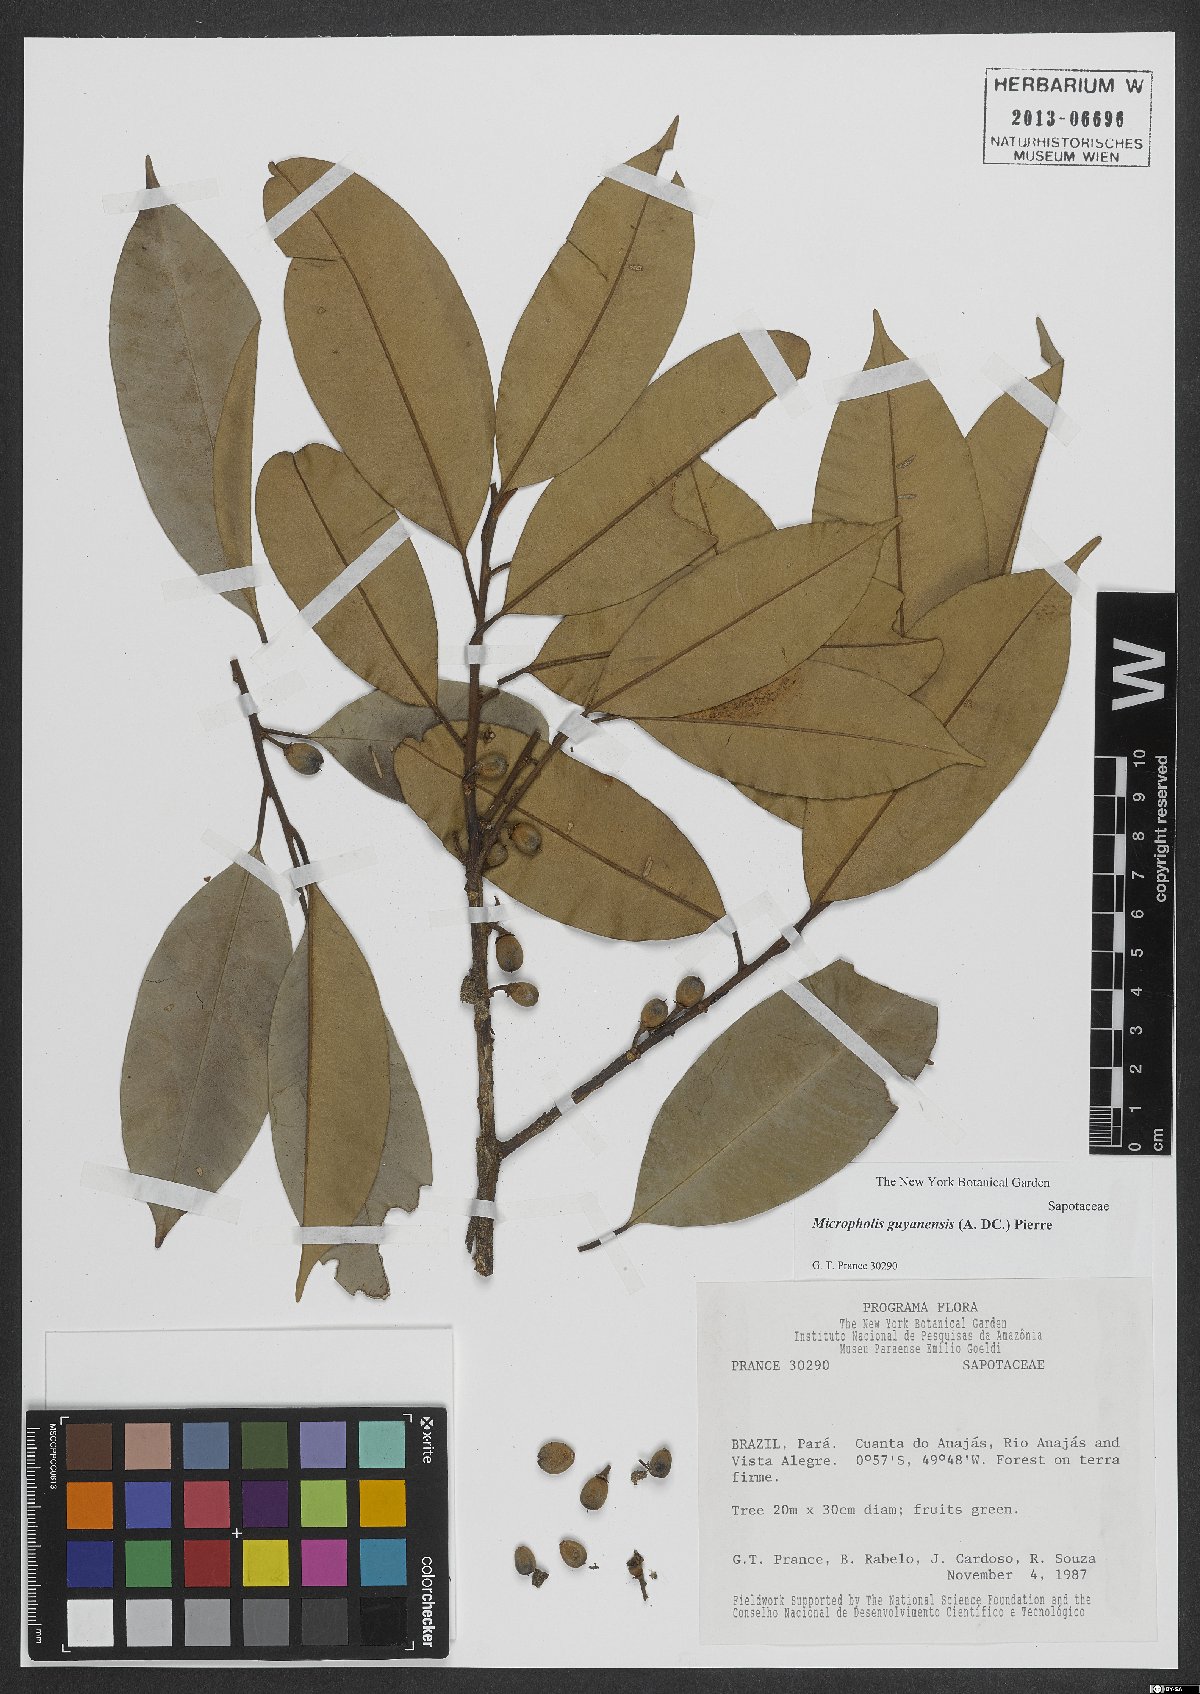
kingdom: Plantae
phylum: Tracheophyta
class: Magnoliopsida
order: Ericales
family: Sapotaceae
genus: Micropholis
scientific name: Micropholis guyanensis
